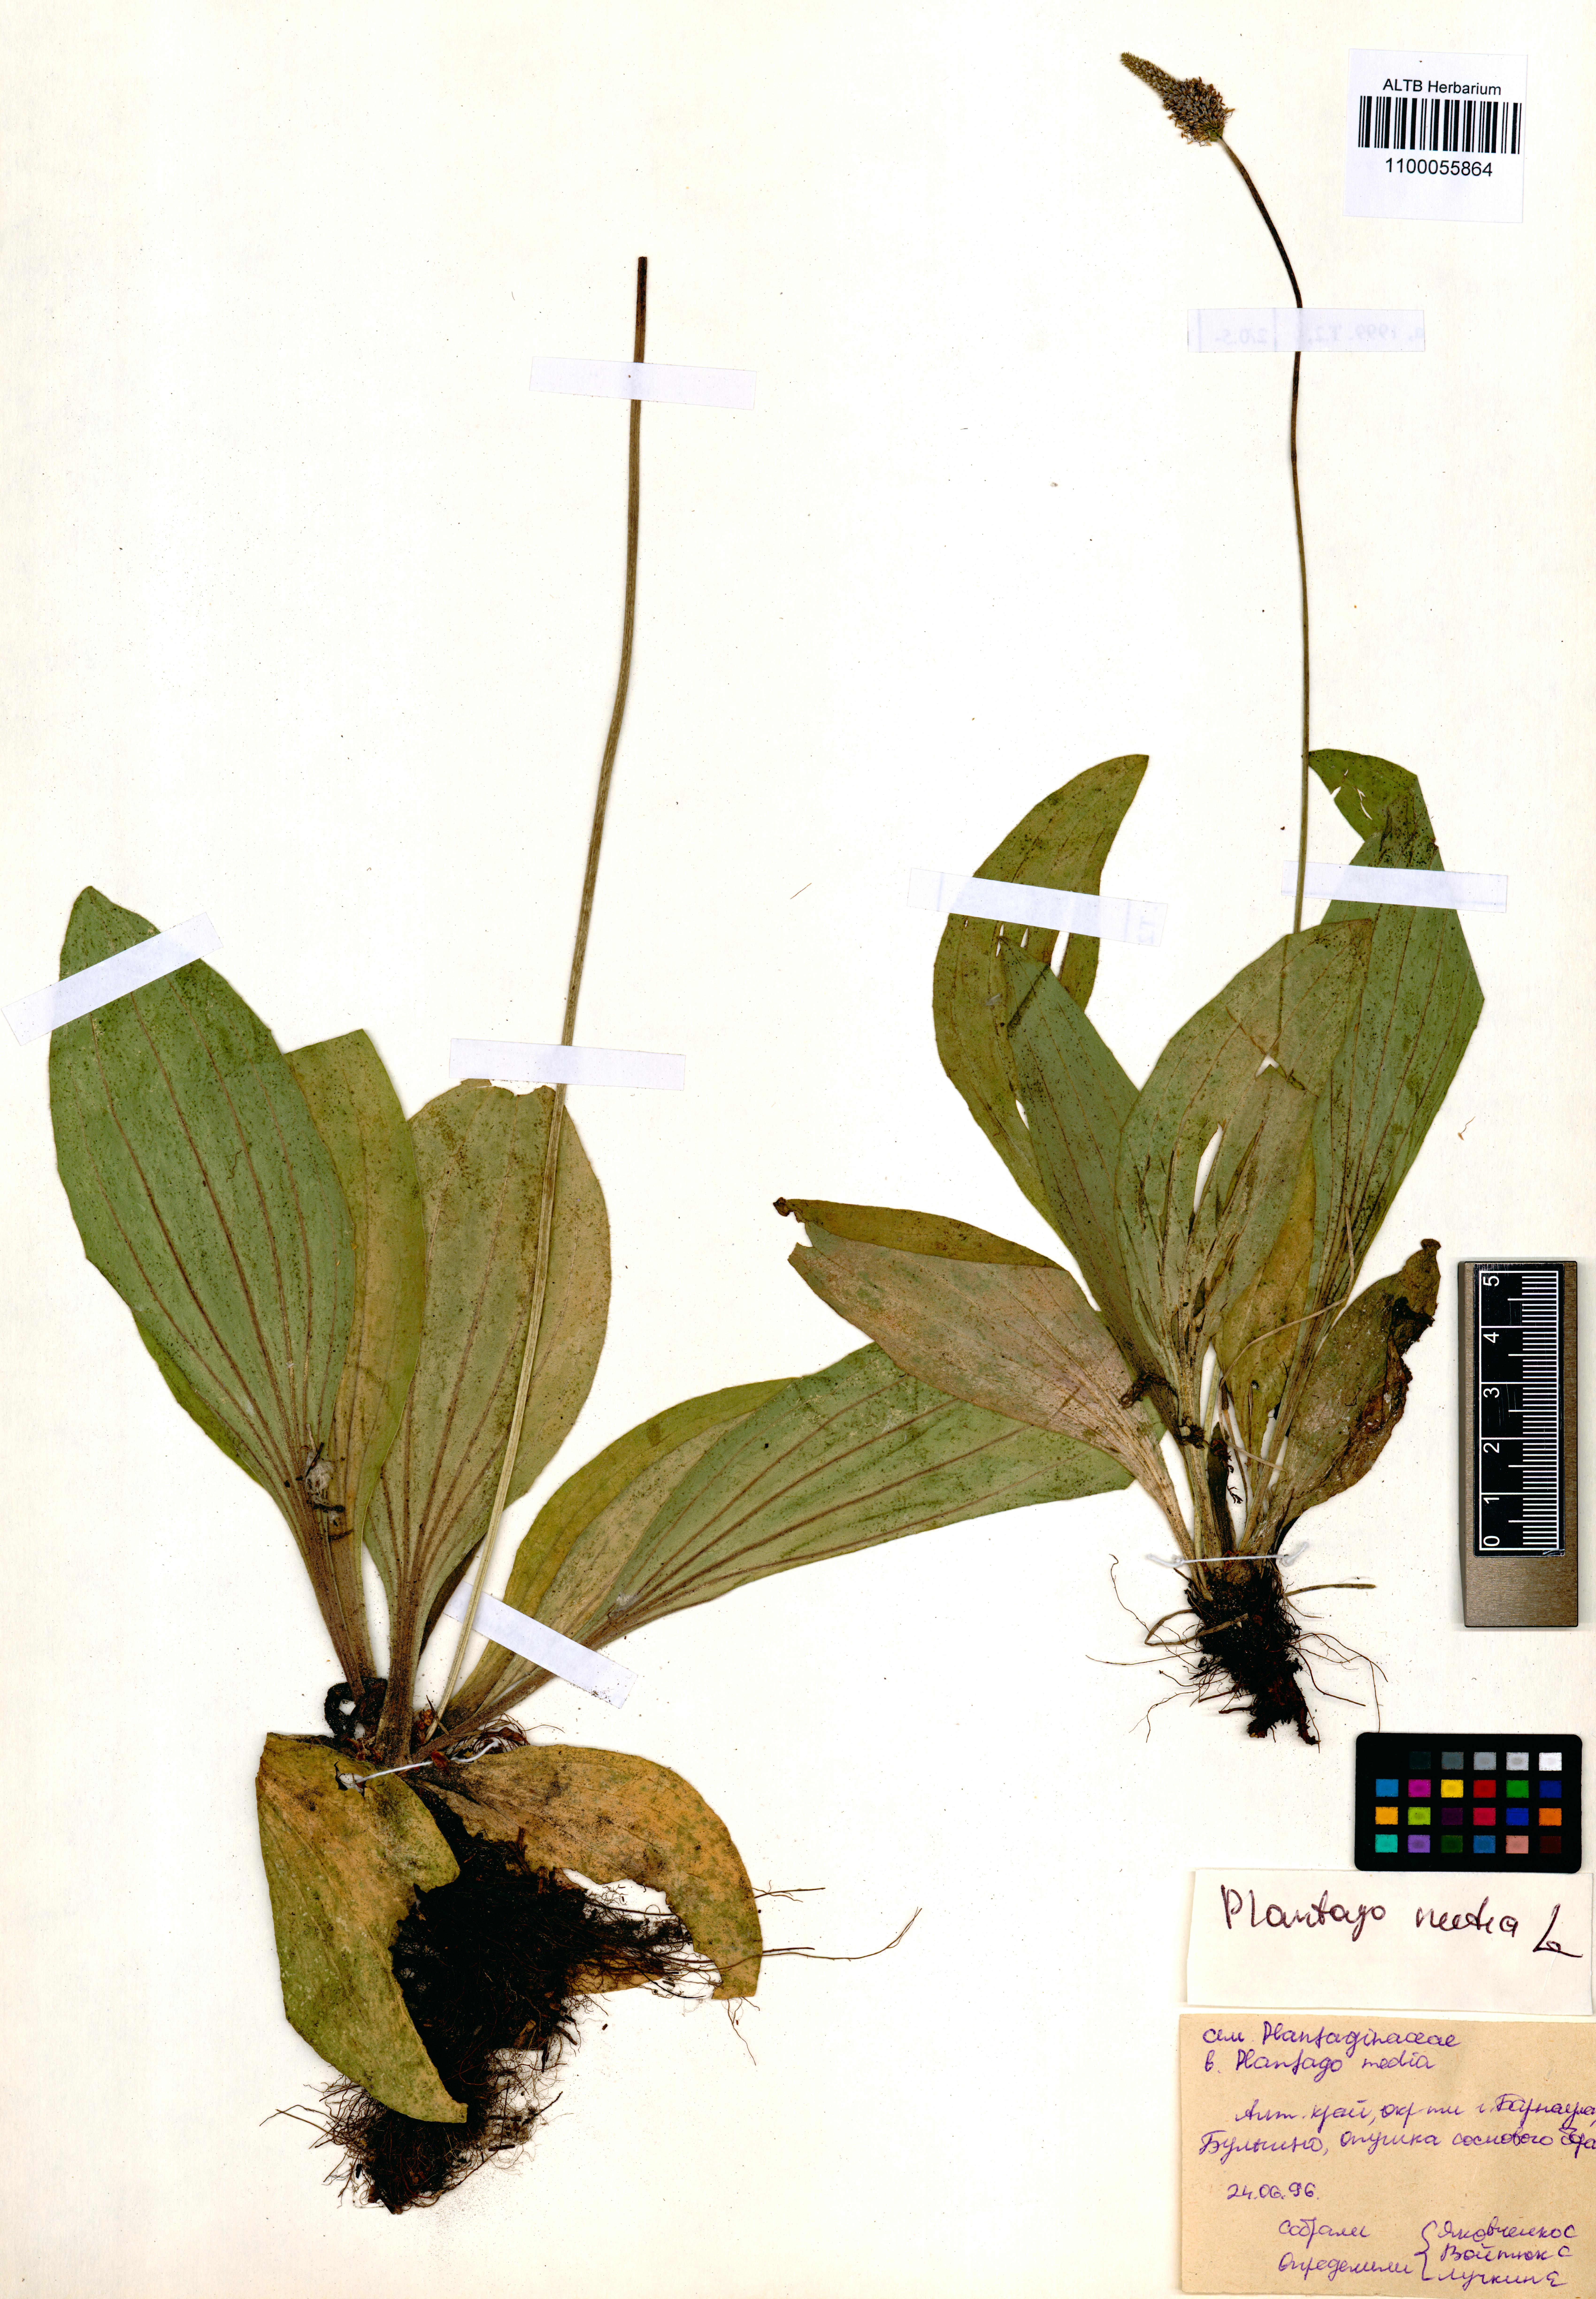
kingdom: Plantae
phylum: Tracheophyta
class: Magnoliopsida
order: Lamiales
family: Plantaginaceae
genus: Plantago
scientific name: Plantago media
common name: Hoary plantain
